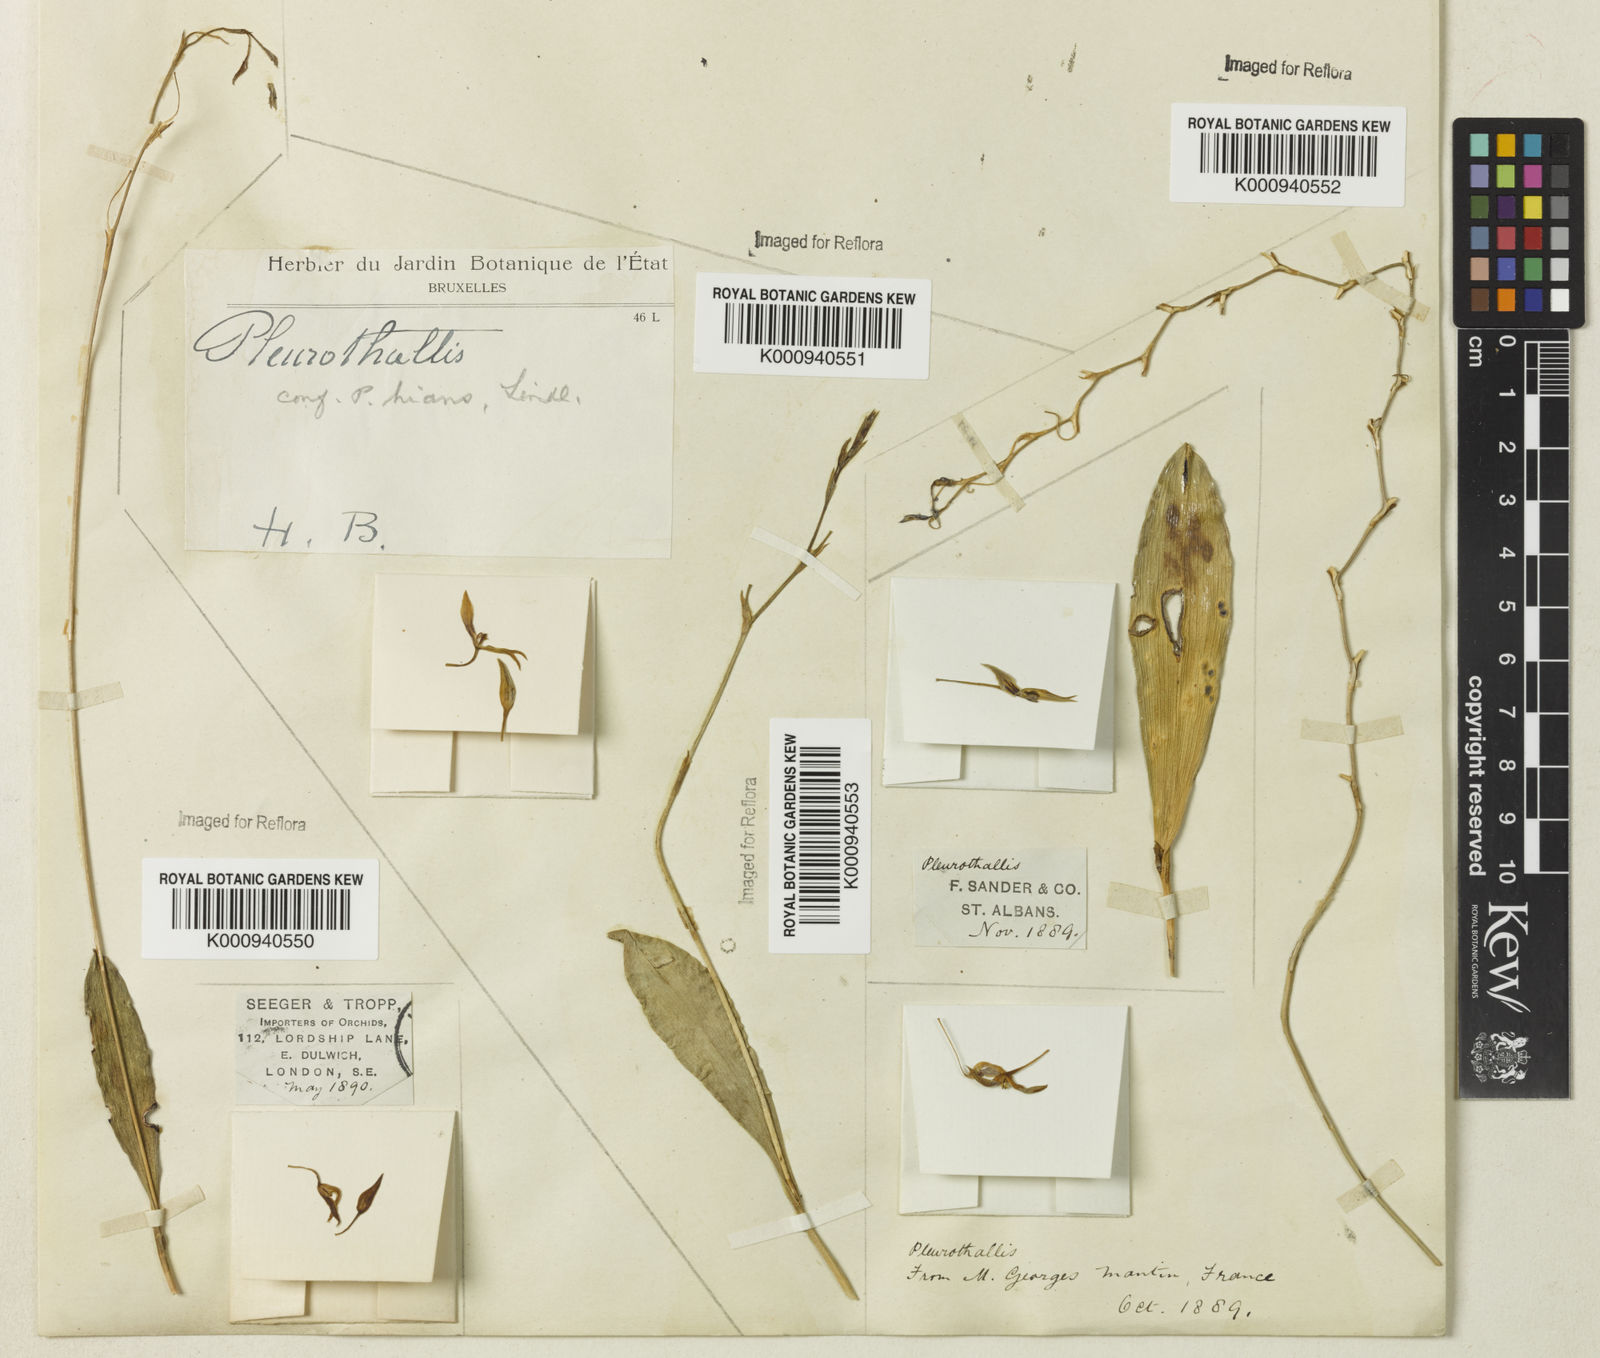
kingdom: Plantae
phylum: Tracheophyta
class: Liliopsida
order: Asparagales
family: Orchidaceae
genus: Stelis
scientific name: Stelis gunningiana
